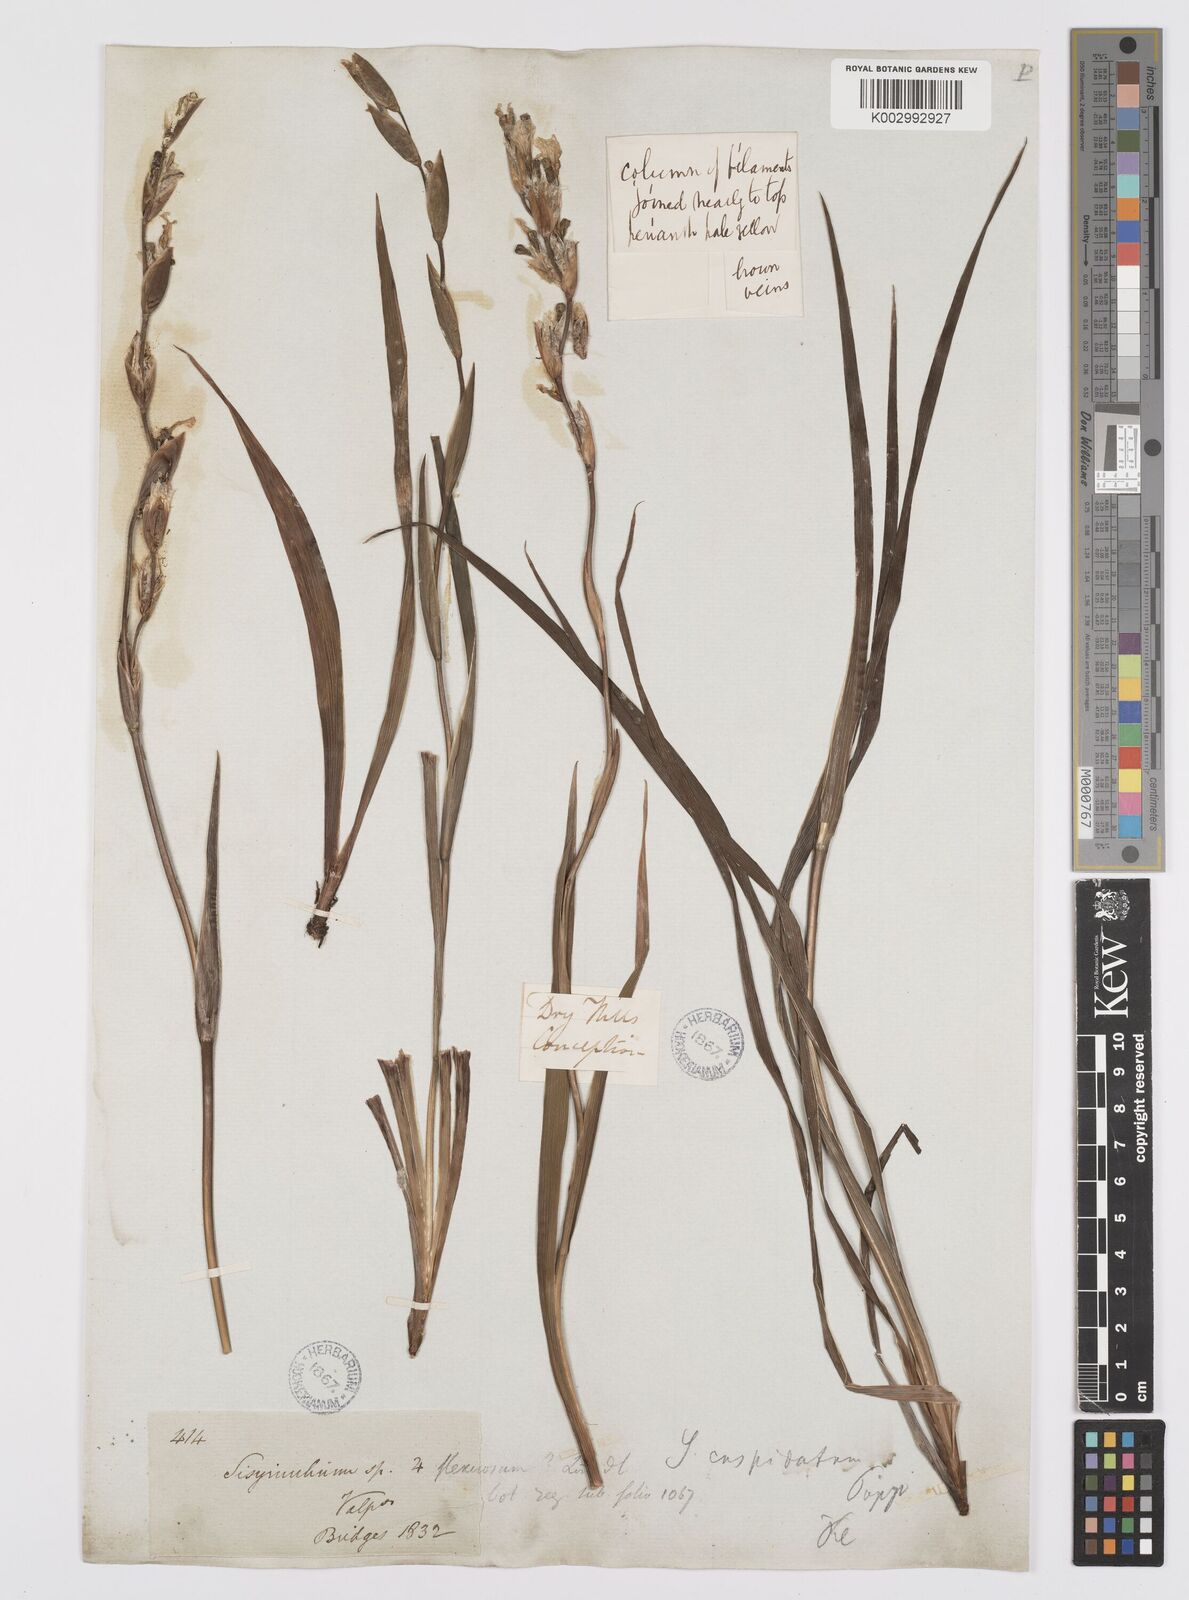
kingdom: Plantae
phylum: Tracheophyta
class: Liliopsida
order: Asparagales
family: Iridaceae
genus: Sisyrinchium
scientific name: Sisyrinchium cuspidatum
